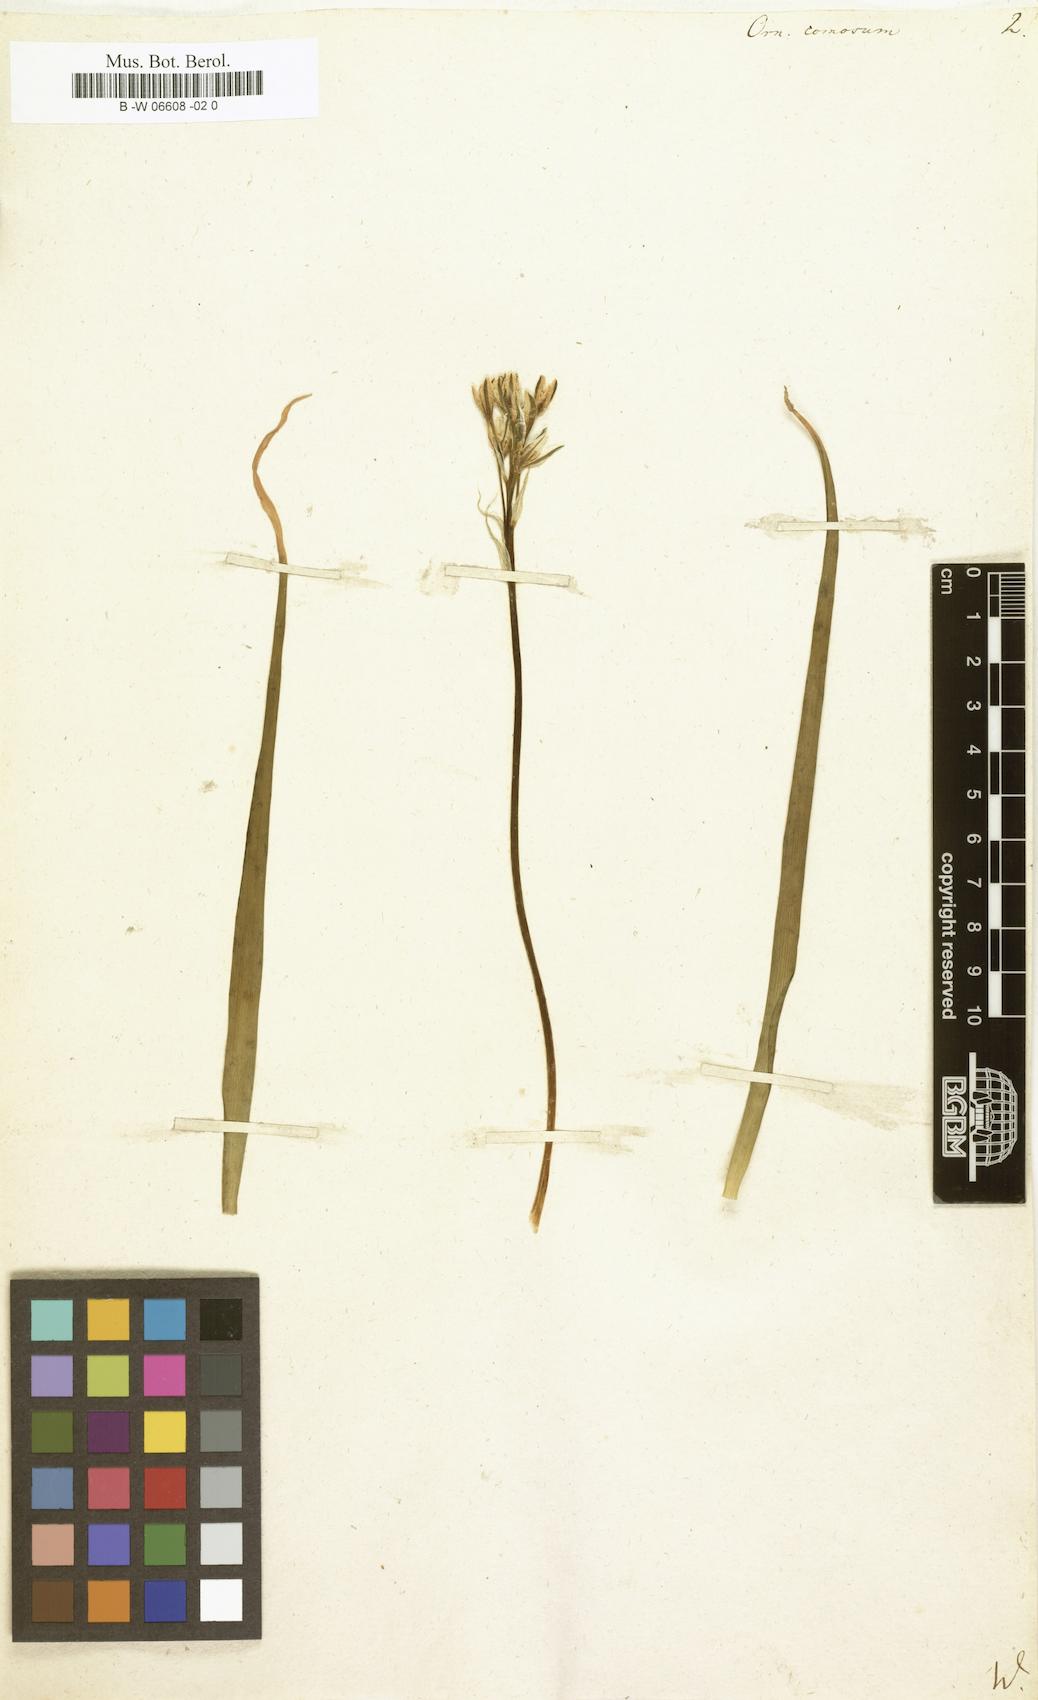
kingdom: Plantae
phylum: Tracheophyta
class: Liliopsida
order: Asparagales
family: Asparagaceae
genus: Ornithogalum
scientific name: Ornithogalum comosum
